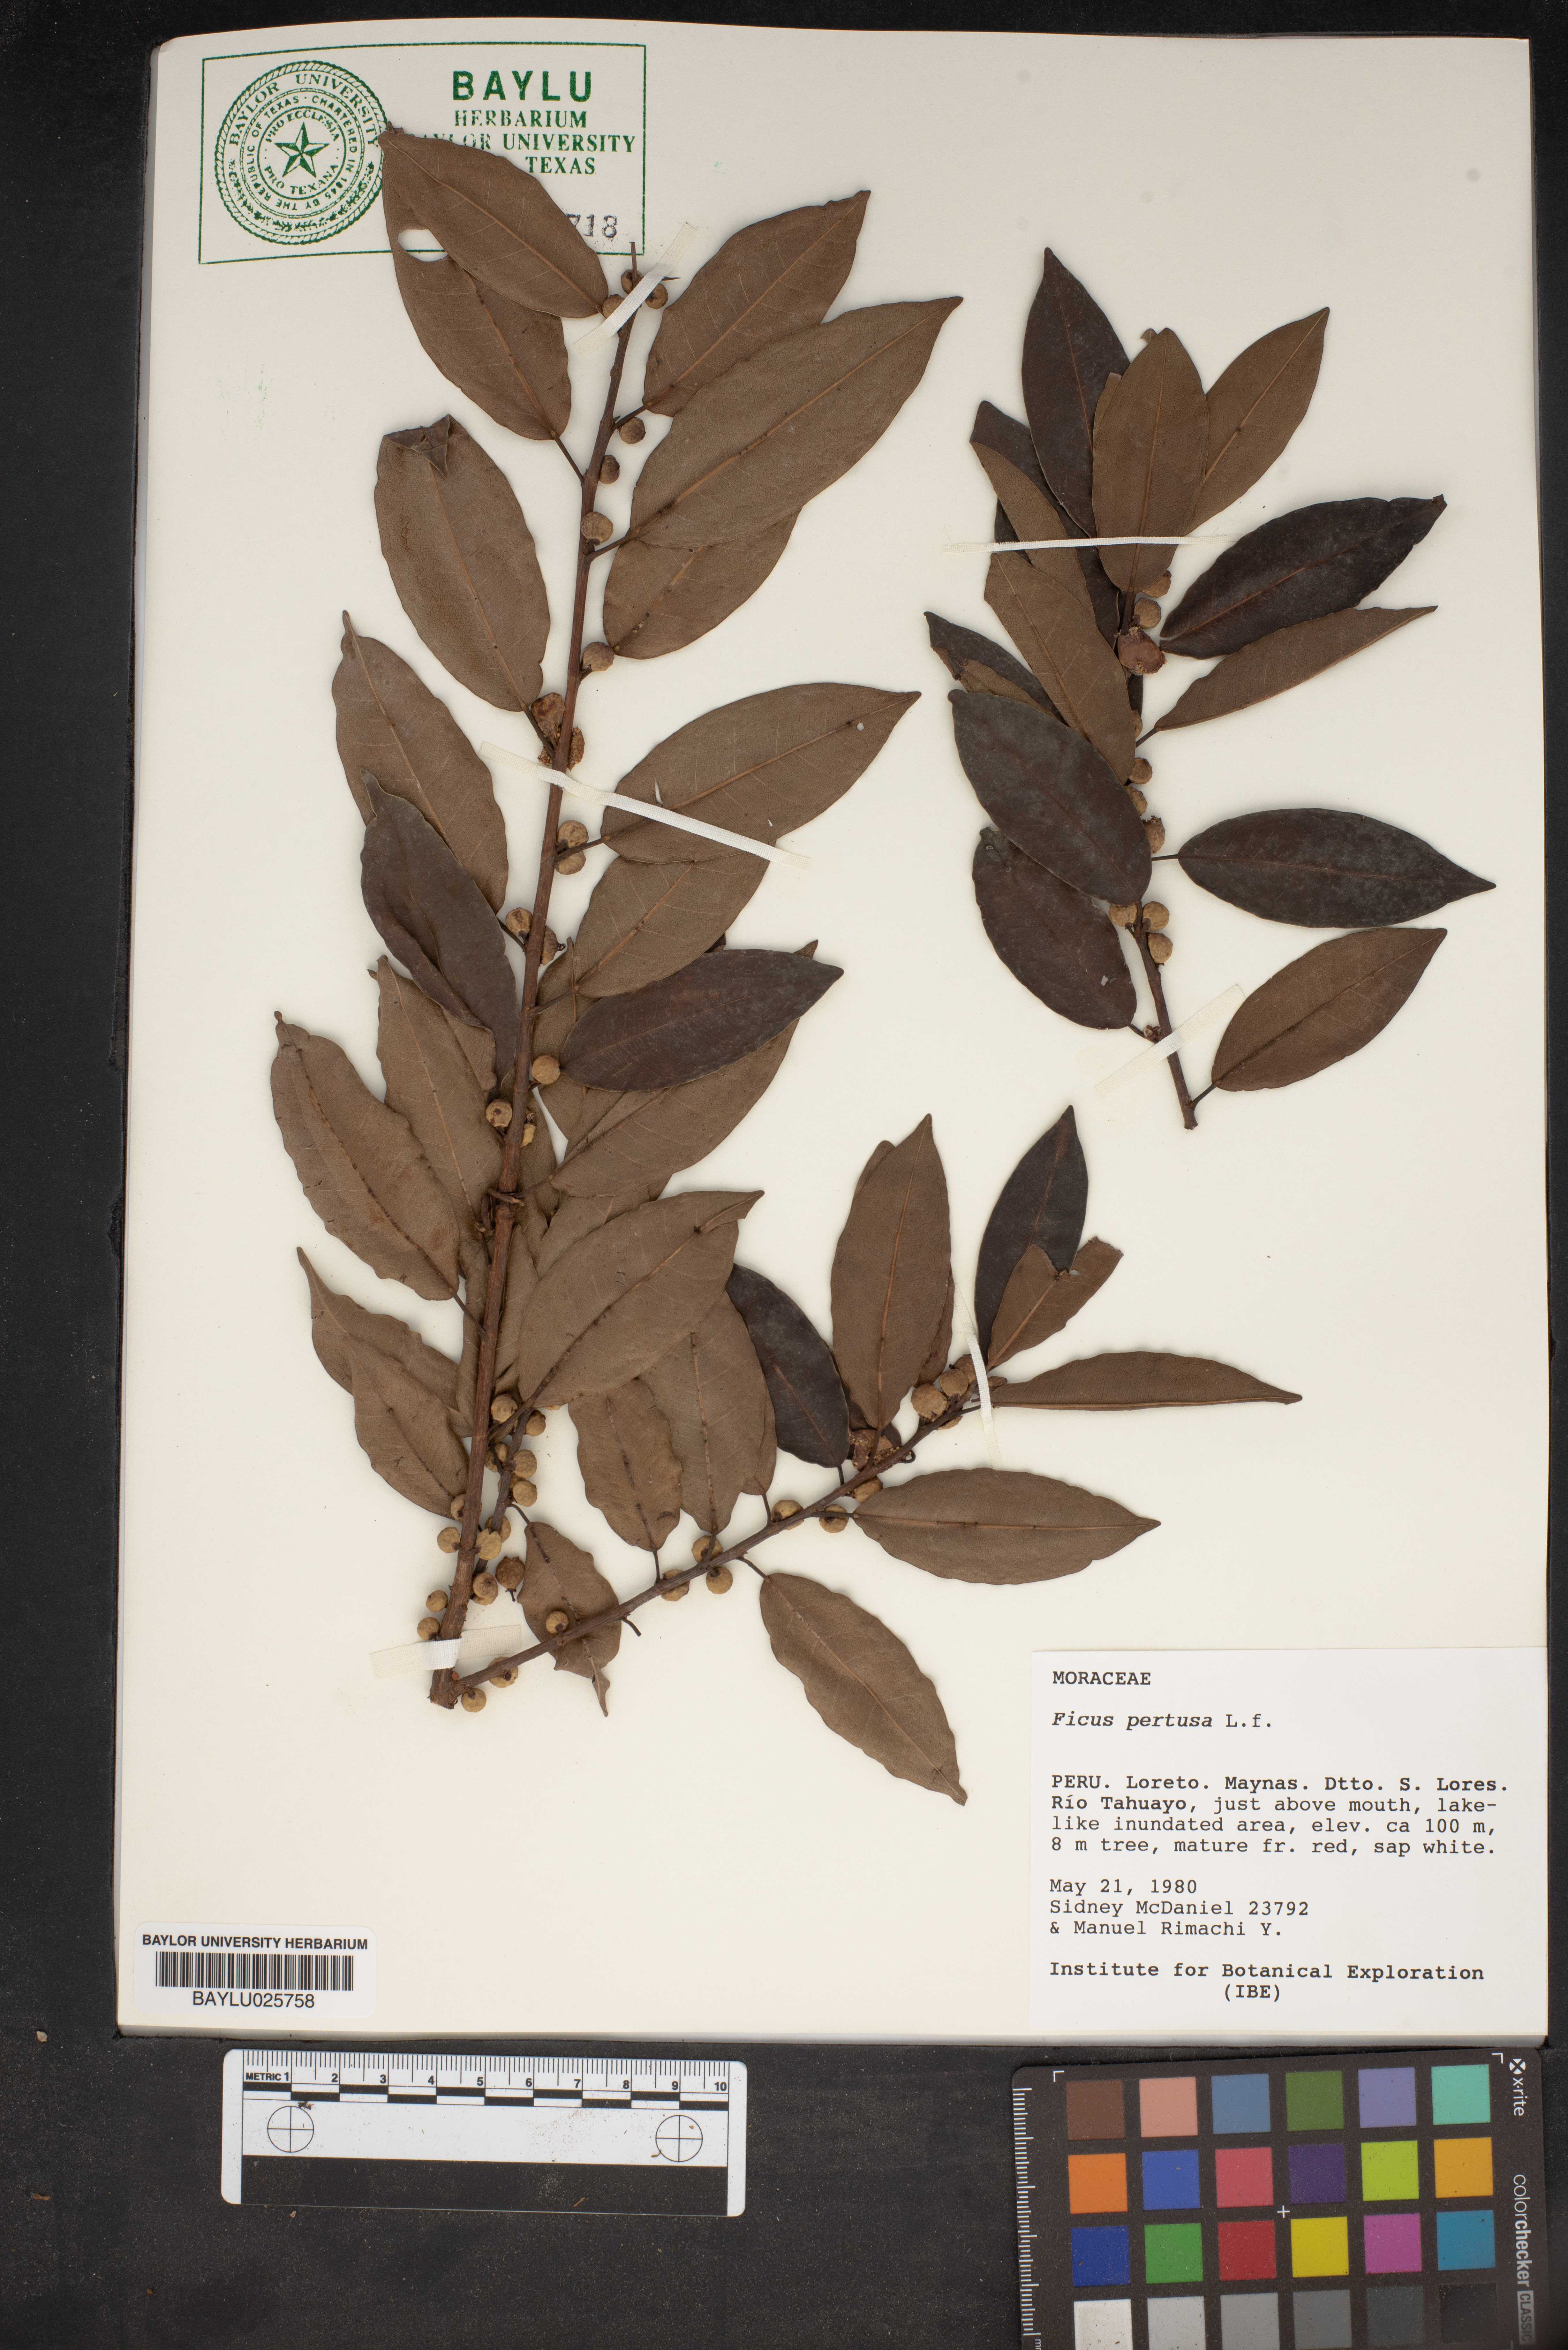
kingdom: Plantae
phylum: Tracheophyta
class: Magnoliopsida
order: Rosales
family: Moraceae
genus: Ficus
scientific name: Ficus pertusa
